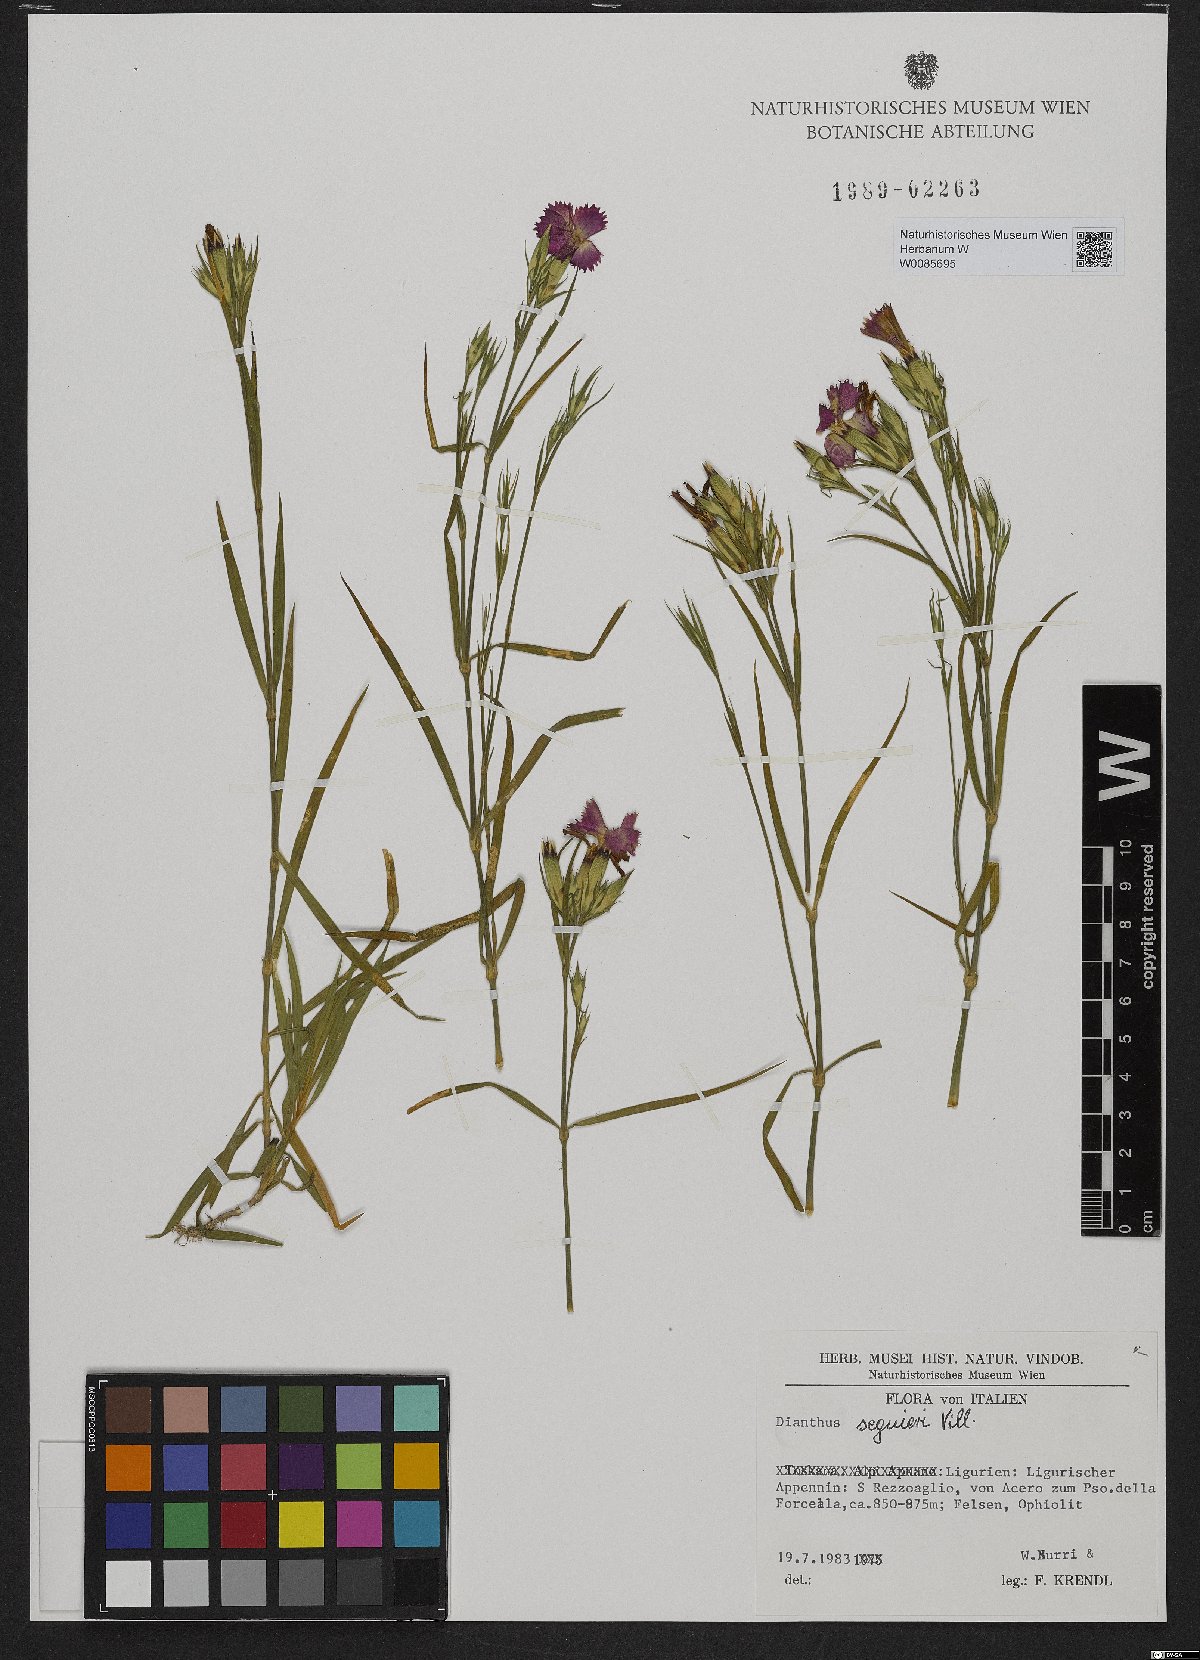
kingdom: Plantae
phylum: Tracheophyta
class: Magnoliopsida
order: Caryophyllales
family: Caryophyllaceae
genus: Dianthus
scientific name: Dianthus seguieri
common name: Ragged pink
